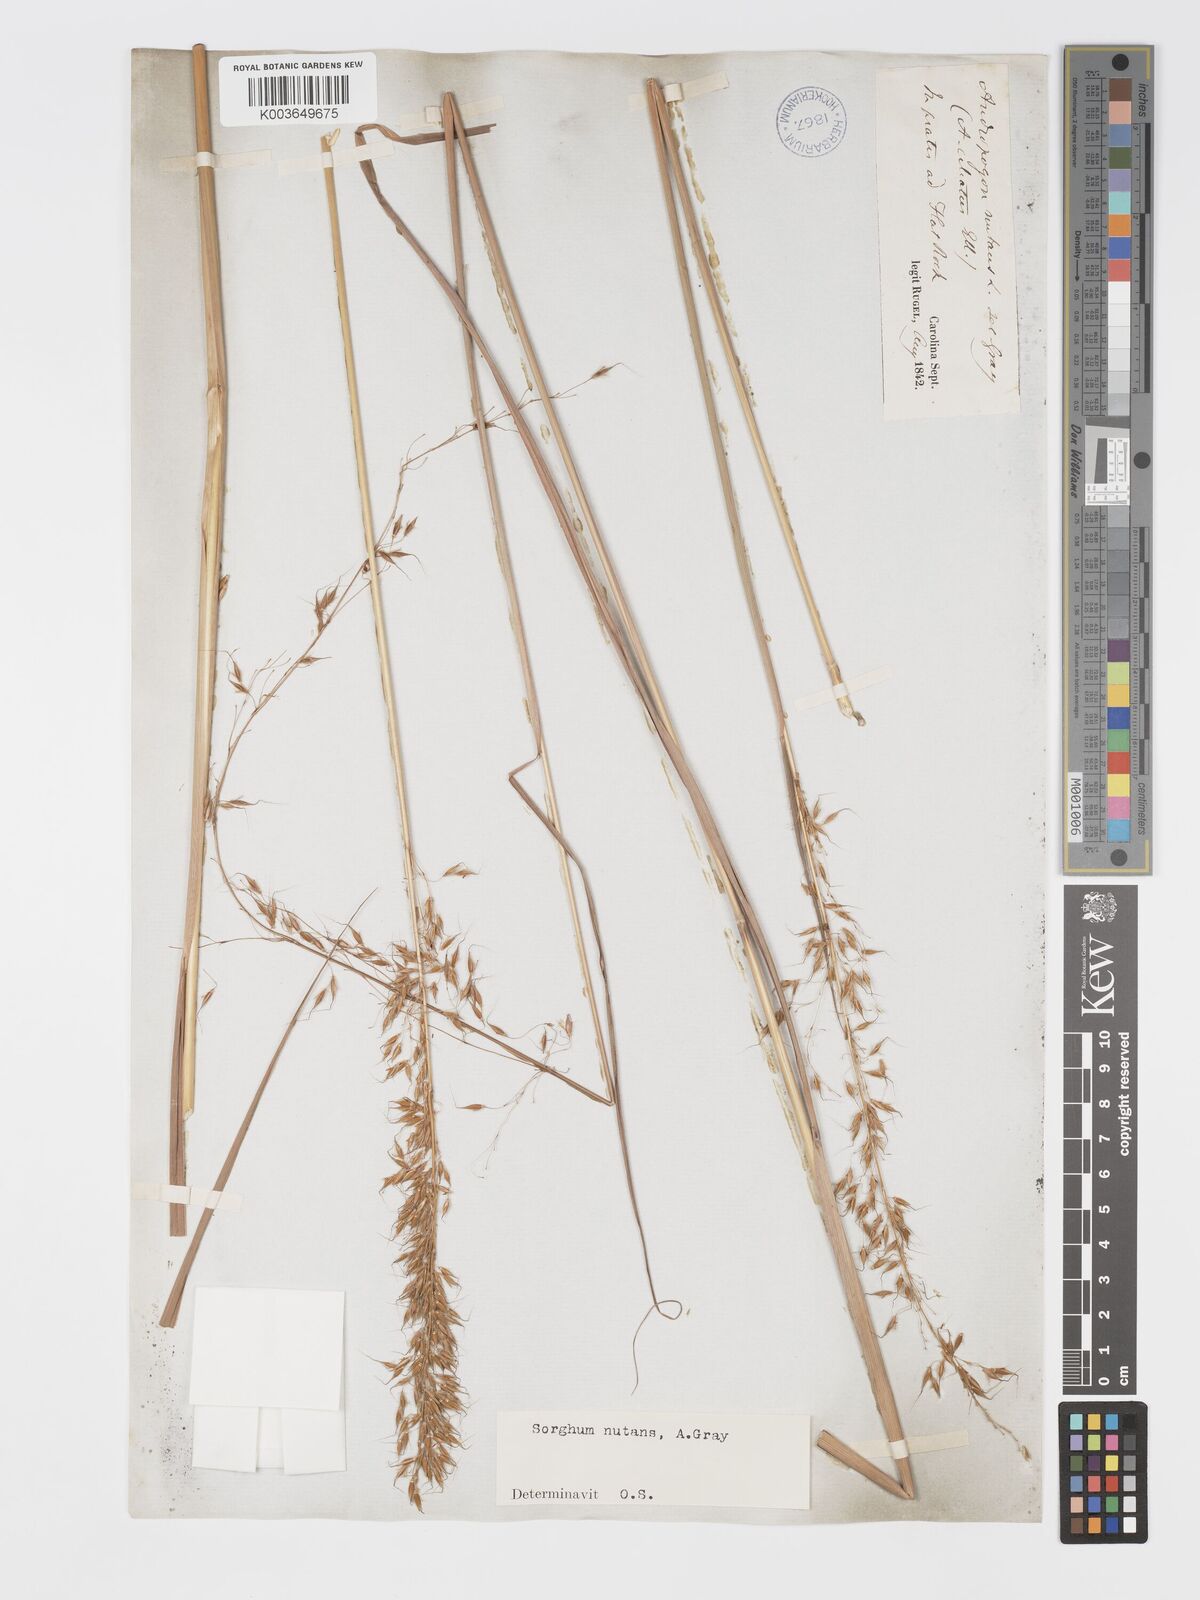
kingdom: Plantae
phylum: Tracheophyta
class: Liliopsida
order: Poales
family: Poaceae
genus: Sorghastrum
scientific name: Sorghastrum nutans
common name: Indian grass
